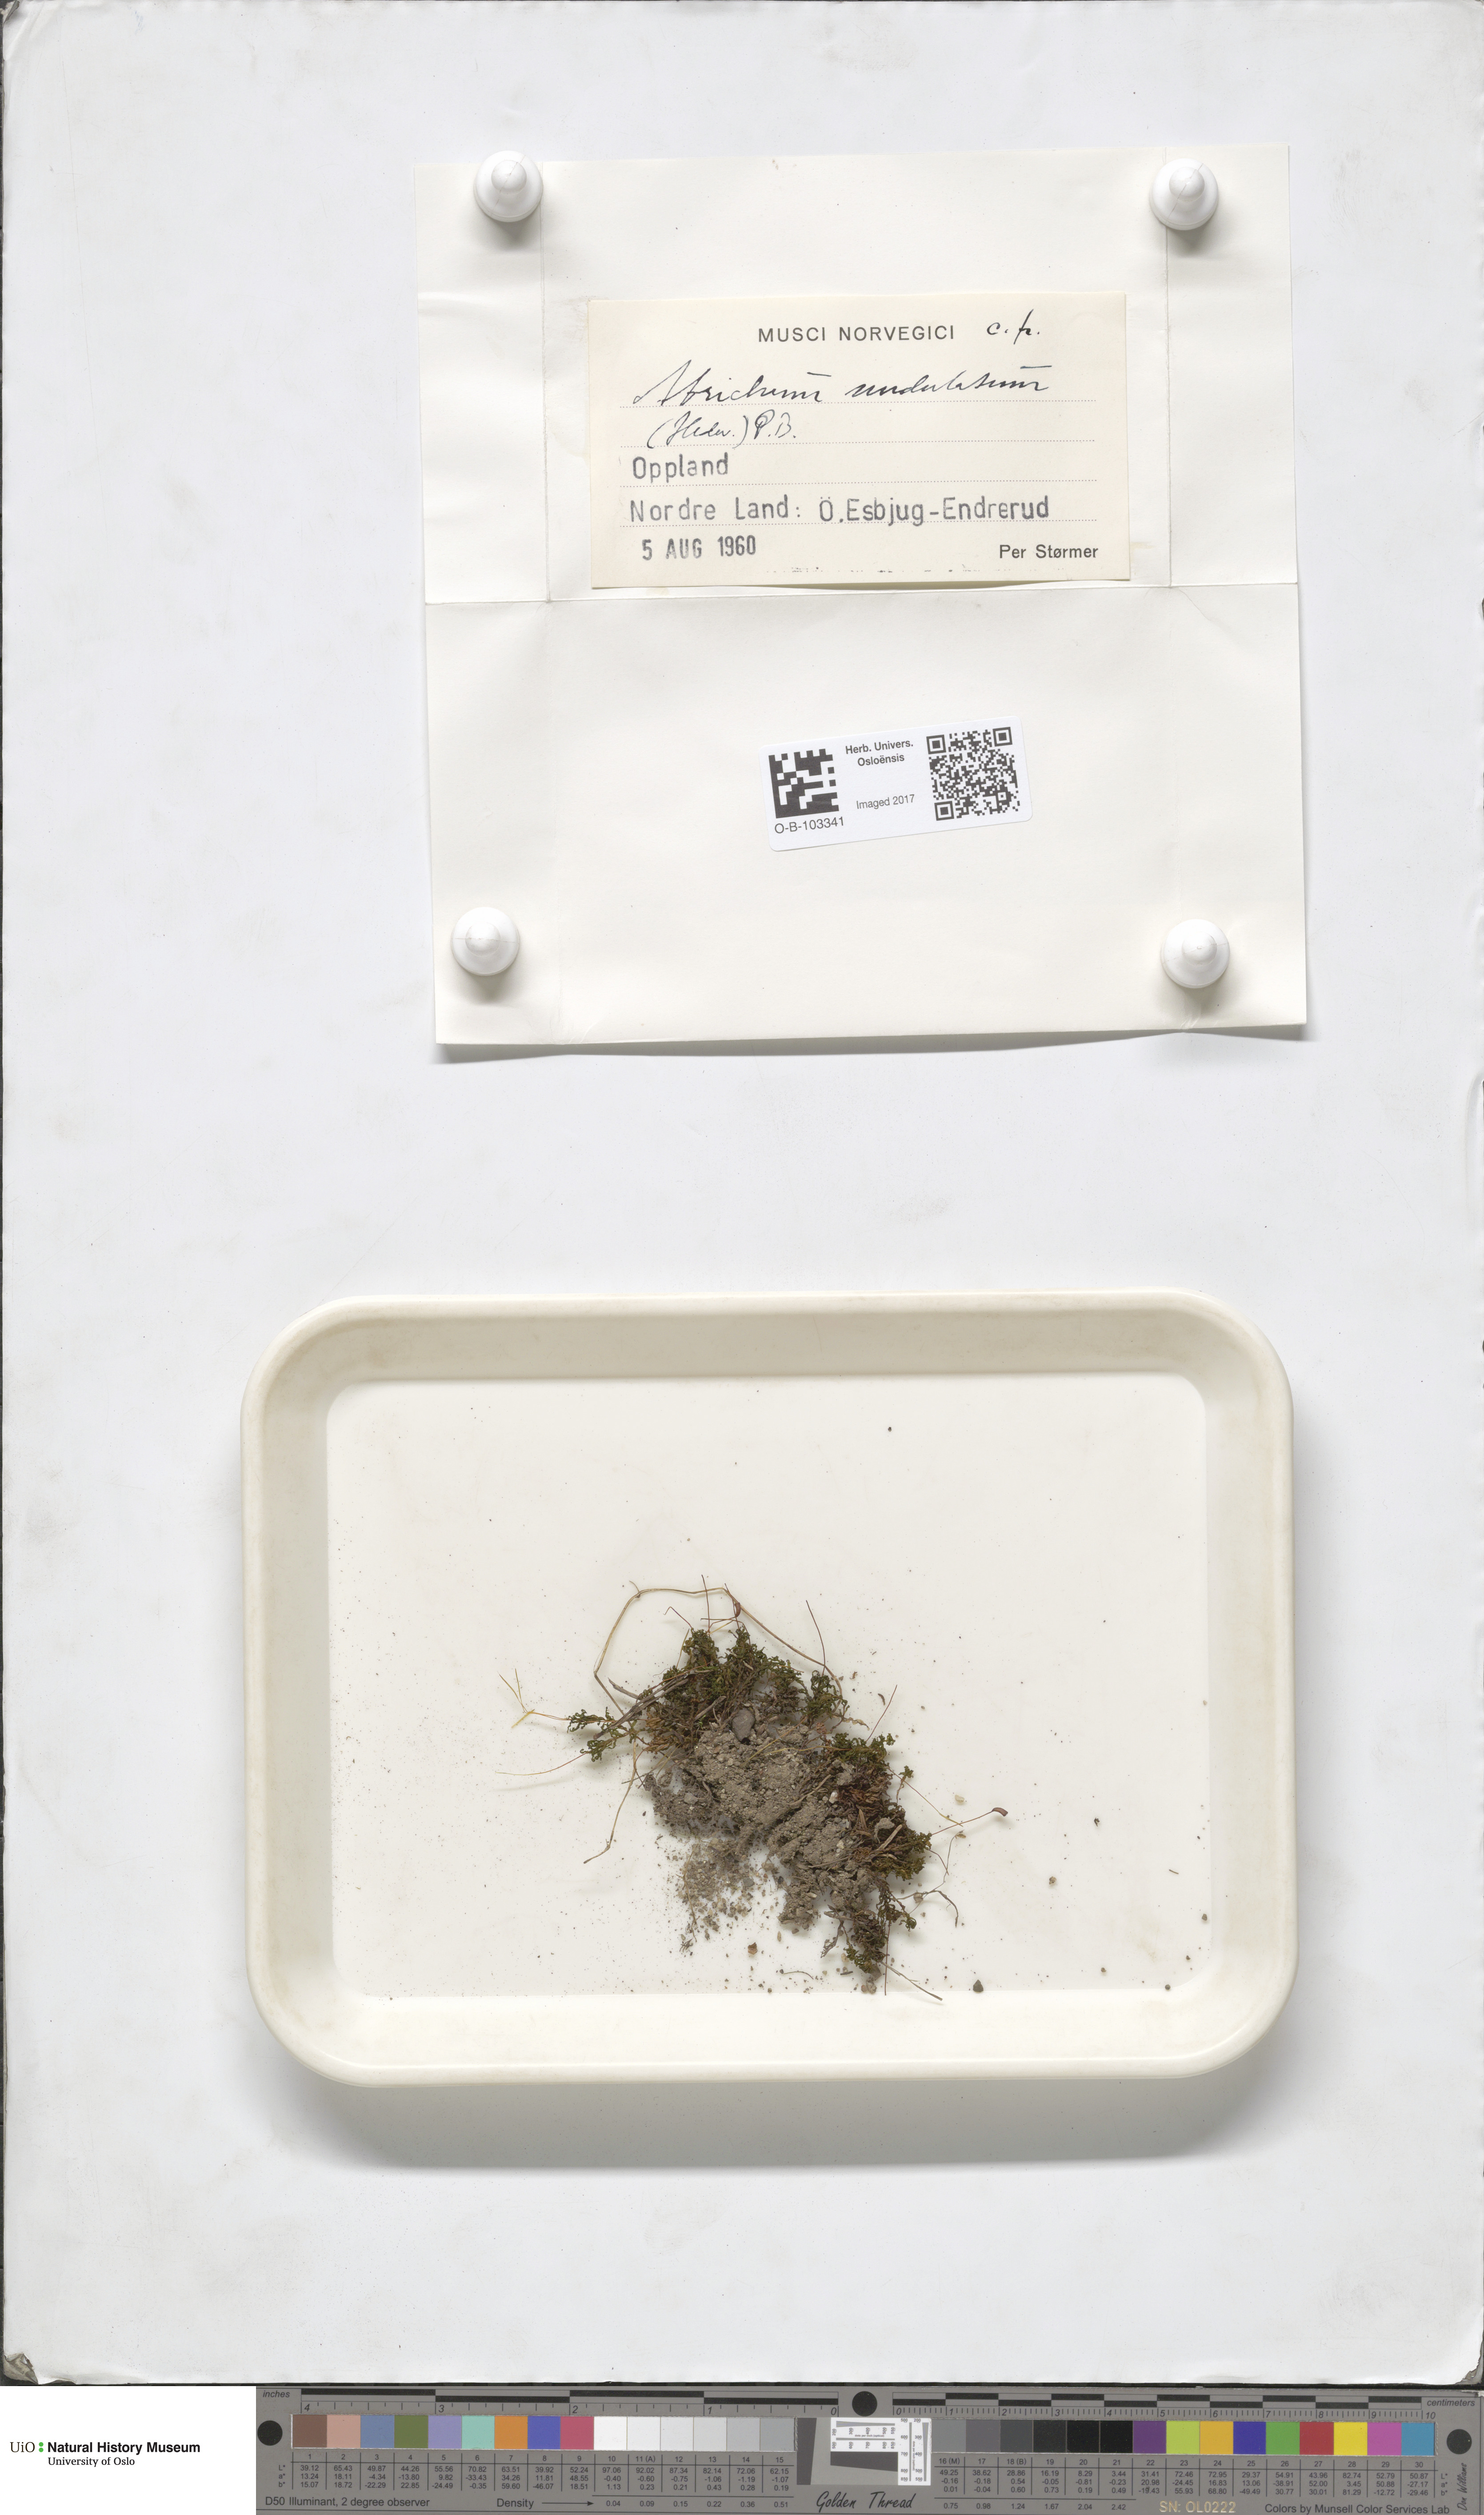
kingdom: Plantae
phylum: Bryophyta
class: Polytrichopsida
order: Polytrichales
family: Polytrichaceae
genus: Atrichum
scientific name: Atrichum undulatum
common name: Common smoothcap
